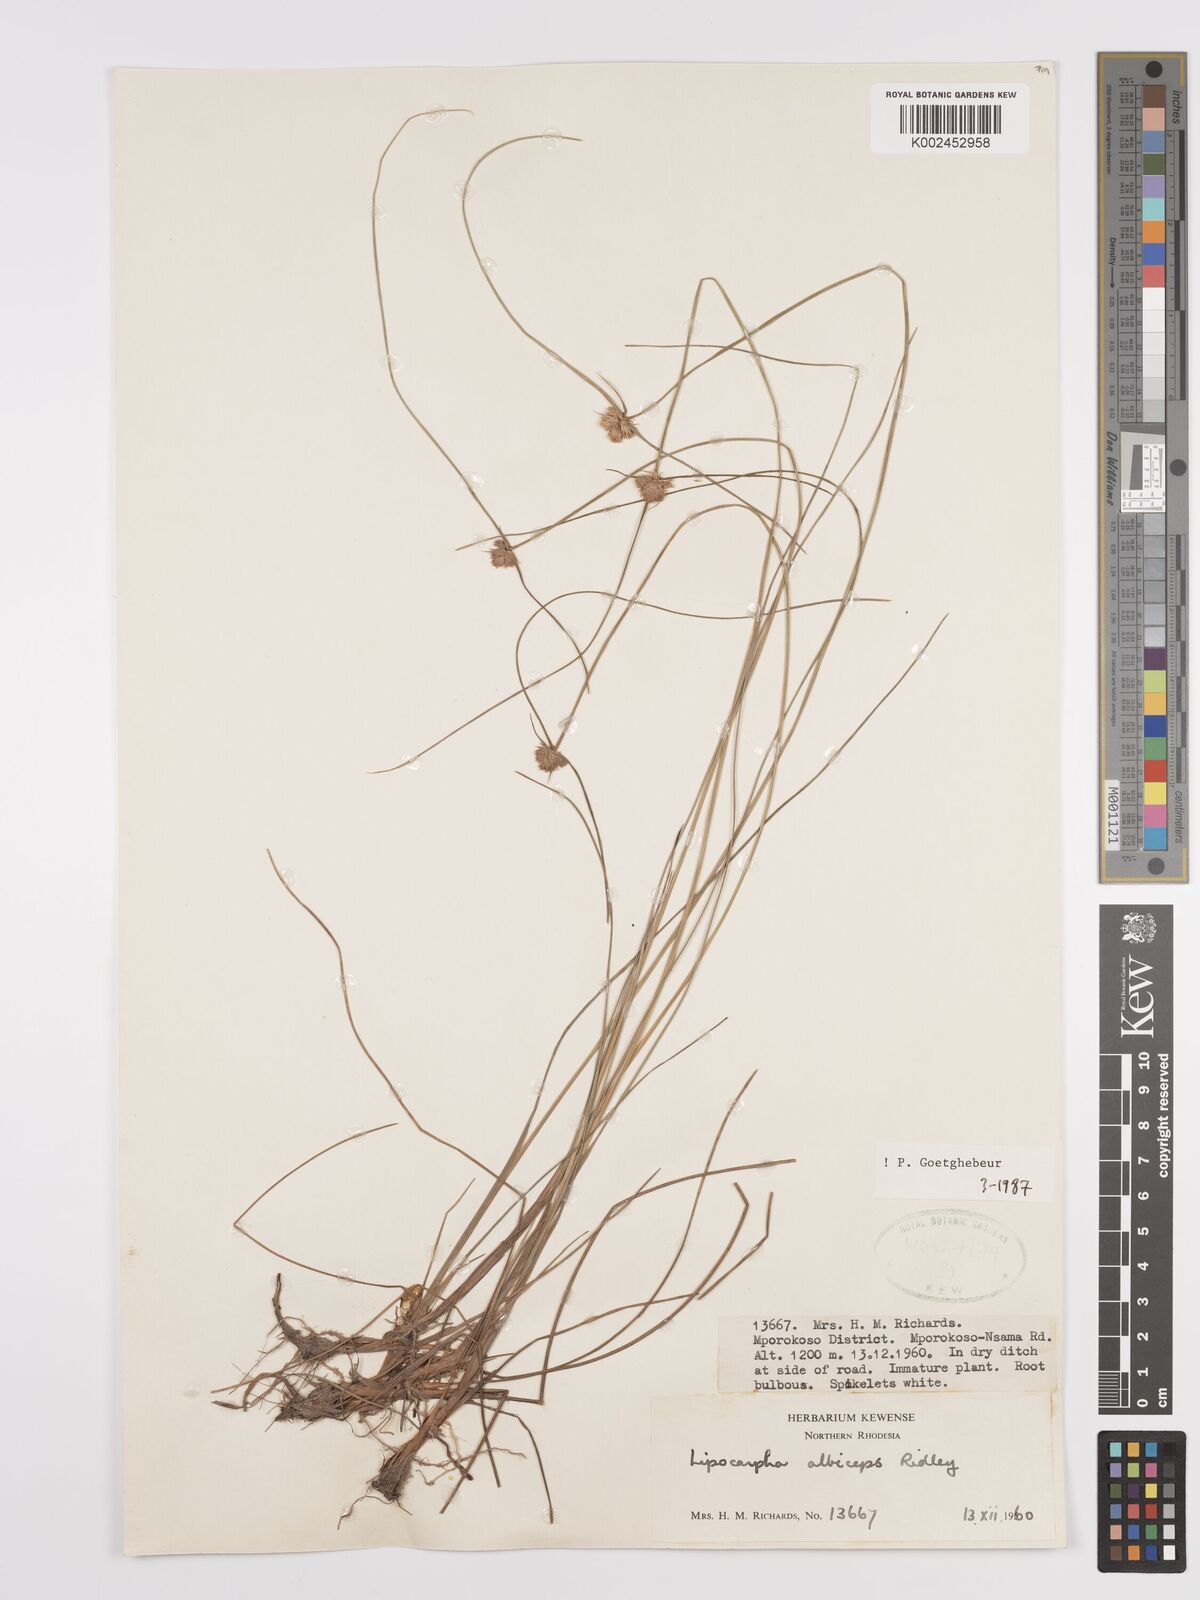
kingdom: Plantae
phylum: Tracheophyta
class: Liliopsida
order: Poales
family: Cyperaceae
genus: Cyperus
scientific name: Cyperus albiceps
